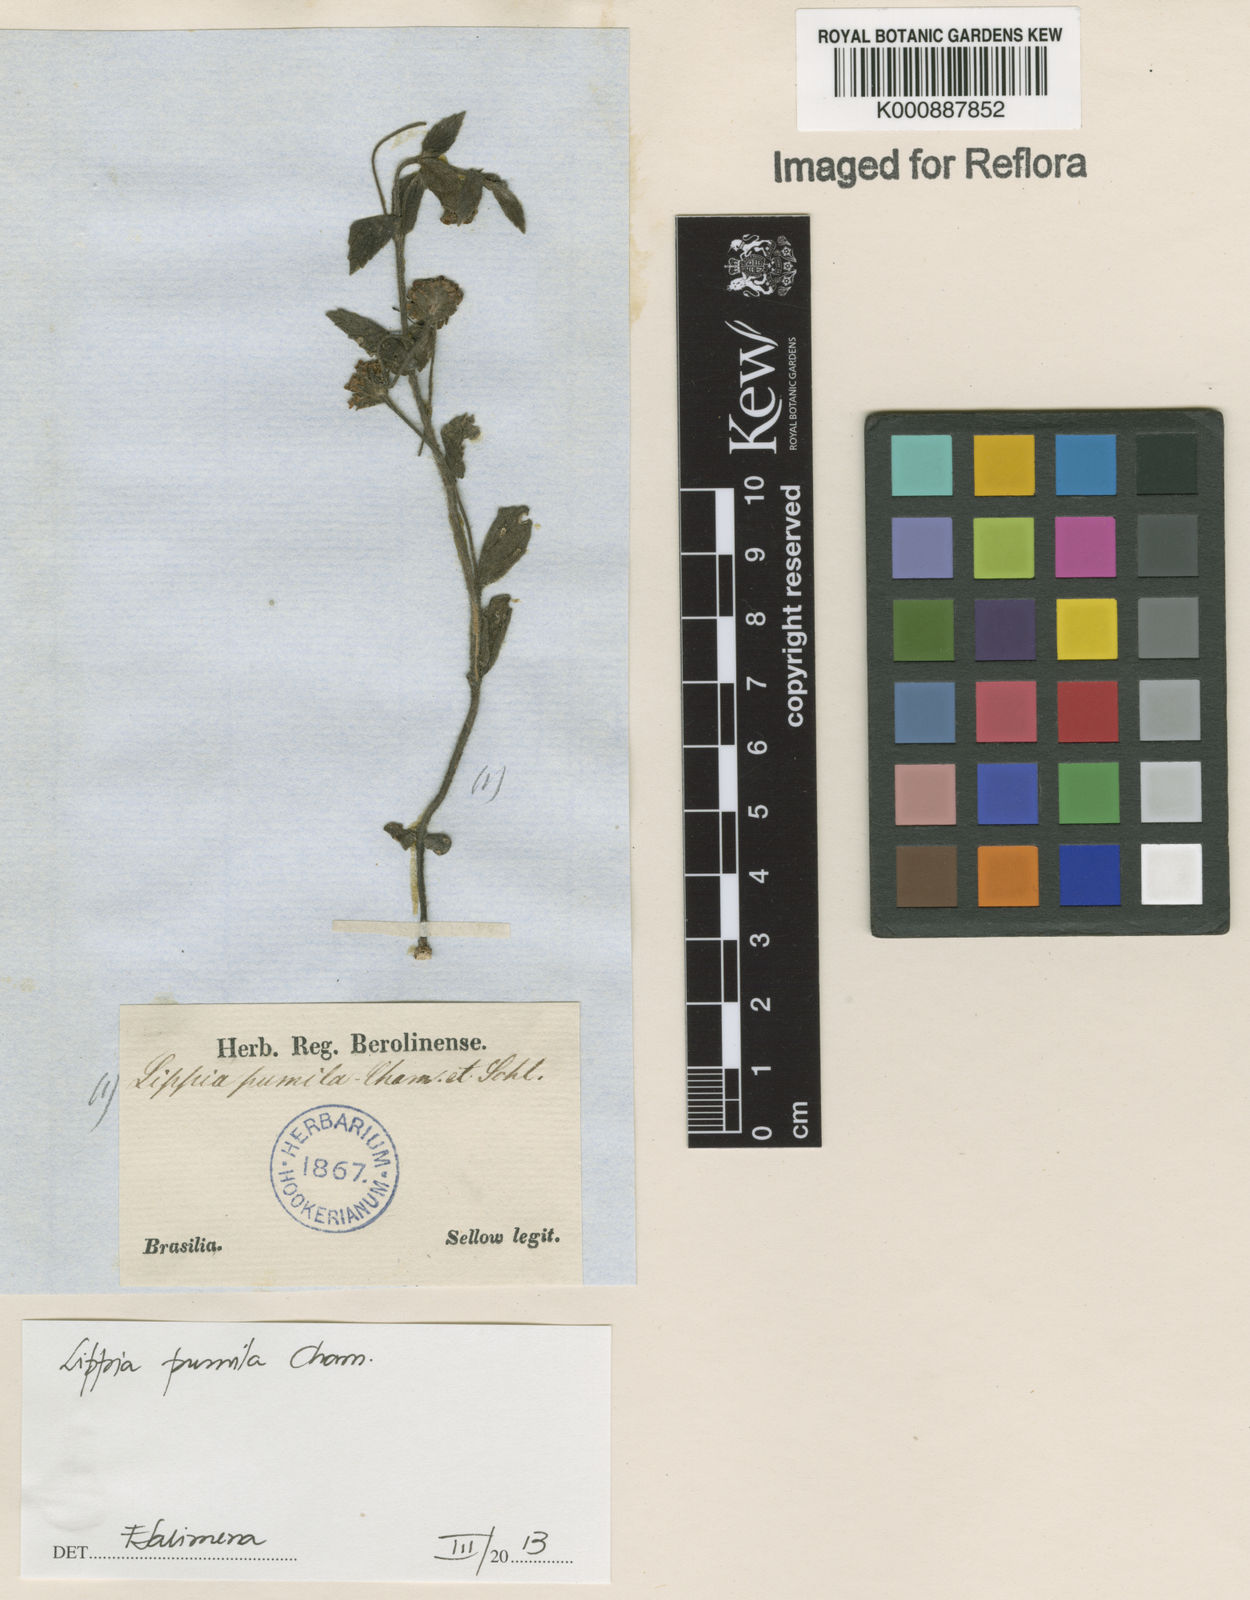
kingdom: Plantae
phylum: Tracheophyta
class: Magnoliopsida
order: Lamiales
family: Verbenaceae
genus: Lippia
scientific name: Lippia pumila
